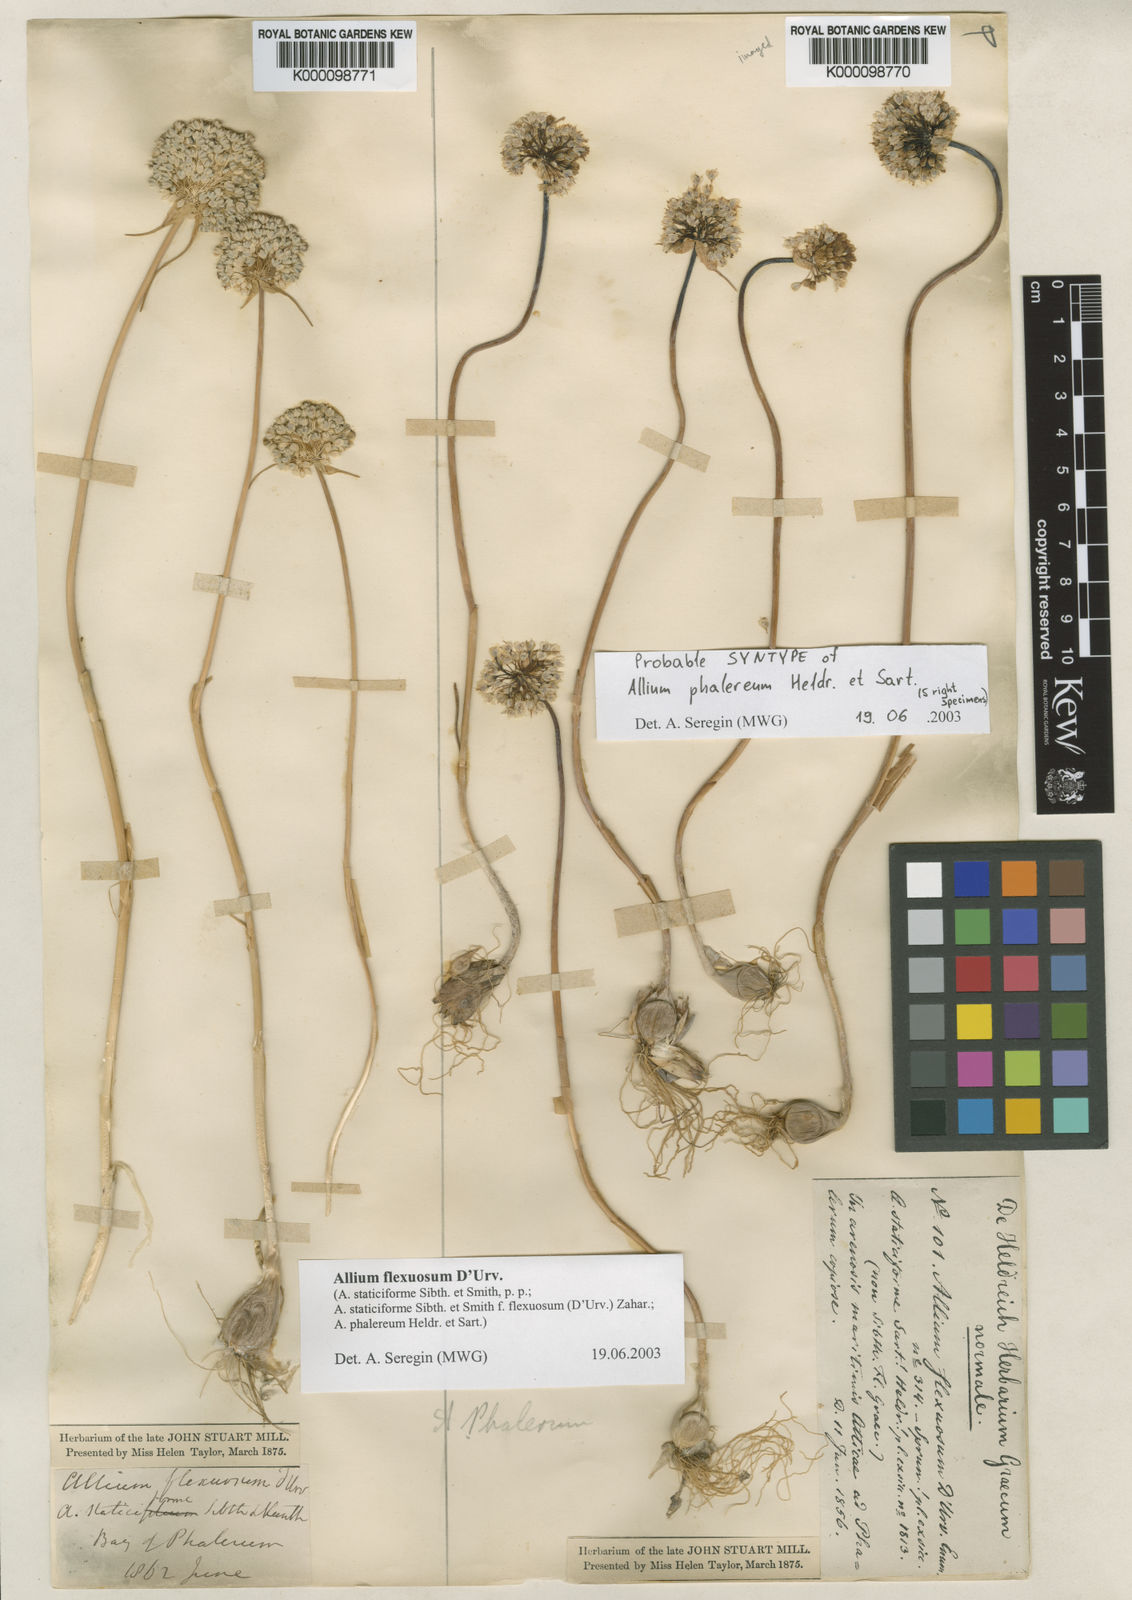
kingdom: Plantae
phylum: Tracheophyta
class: Liliopsida
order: Asparagales
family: Amaryllidaceae
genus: Allium
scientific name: Allium
